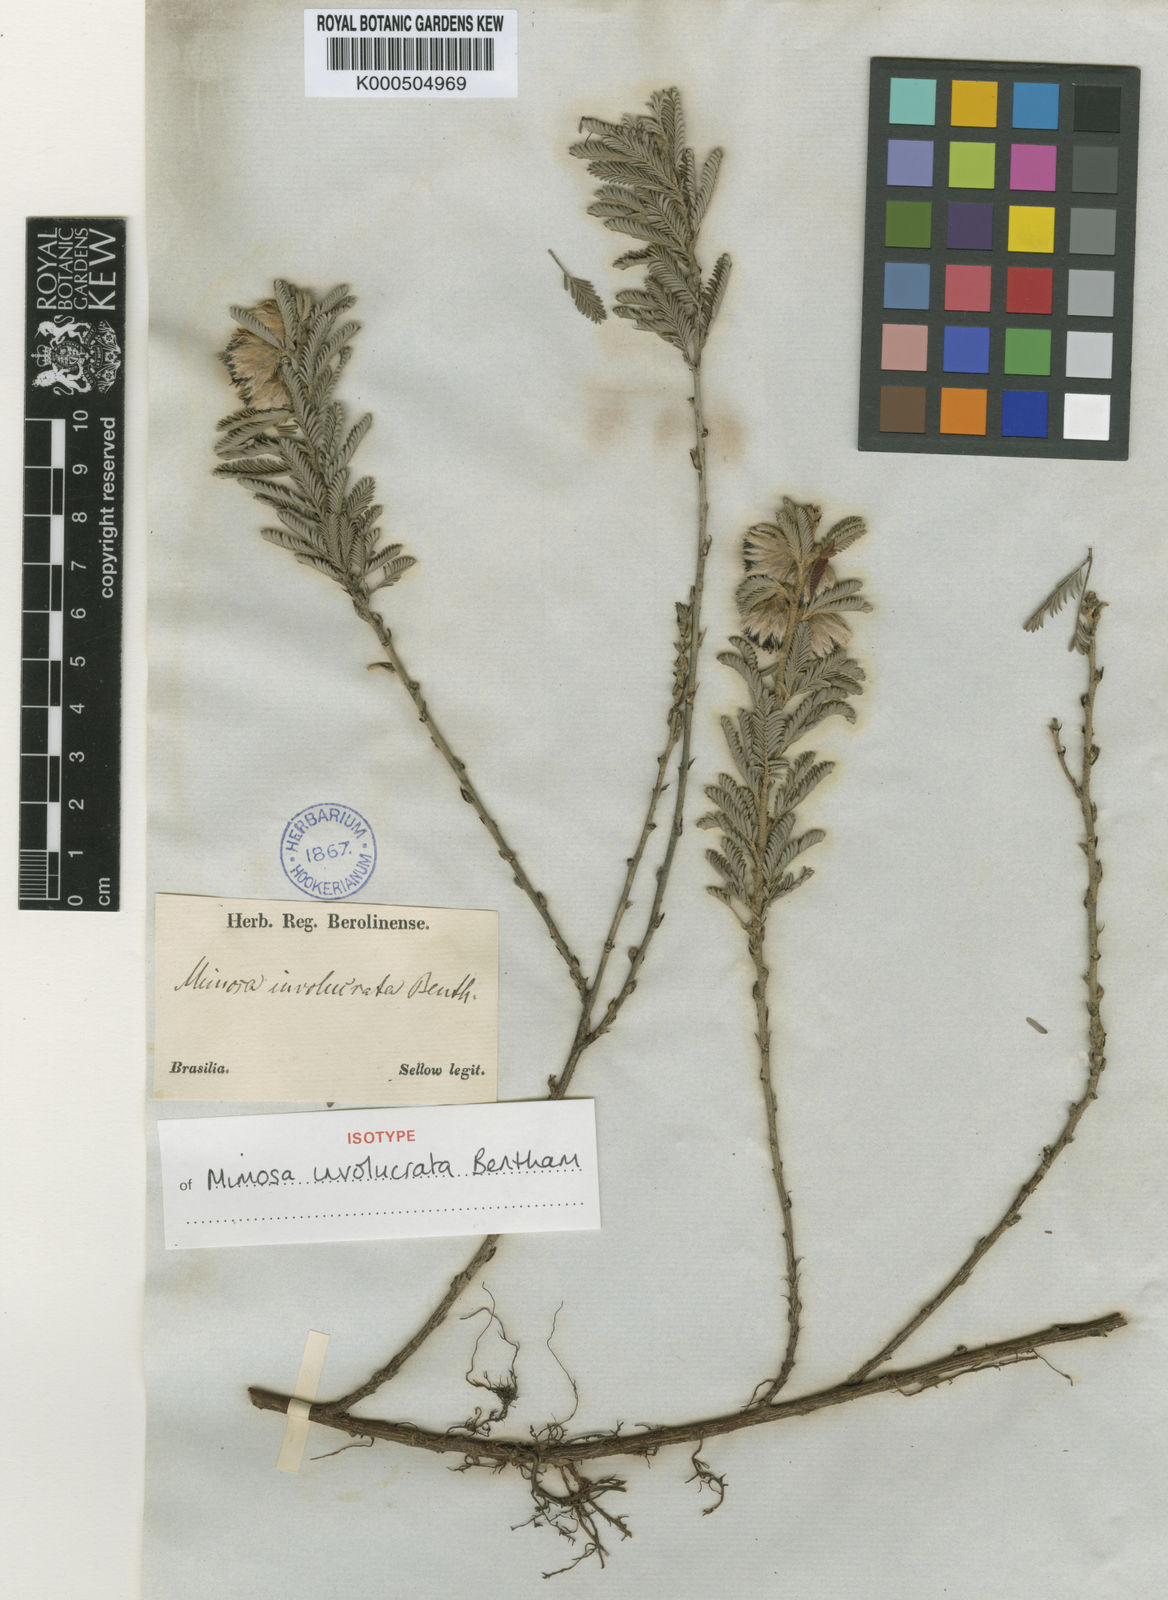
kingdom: Plantae
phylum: Tracheophyta
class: Magnoliopsida
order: Fabales
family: Fabaceae
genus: Mimosa
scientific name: Mimosa involucrata
